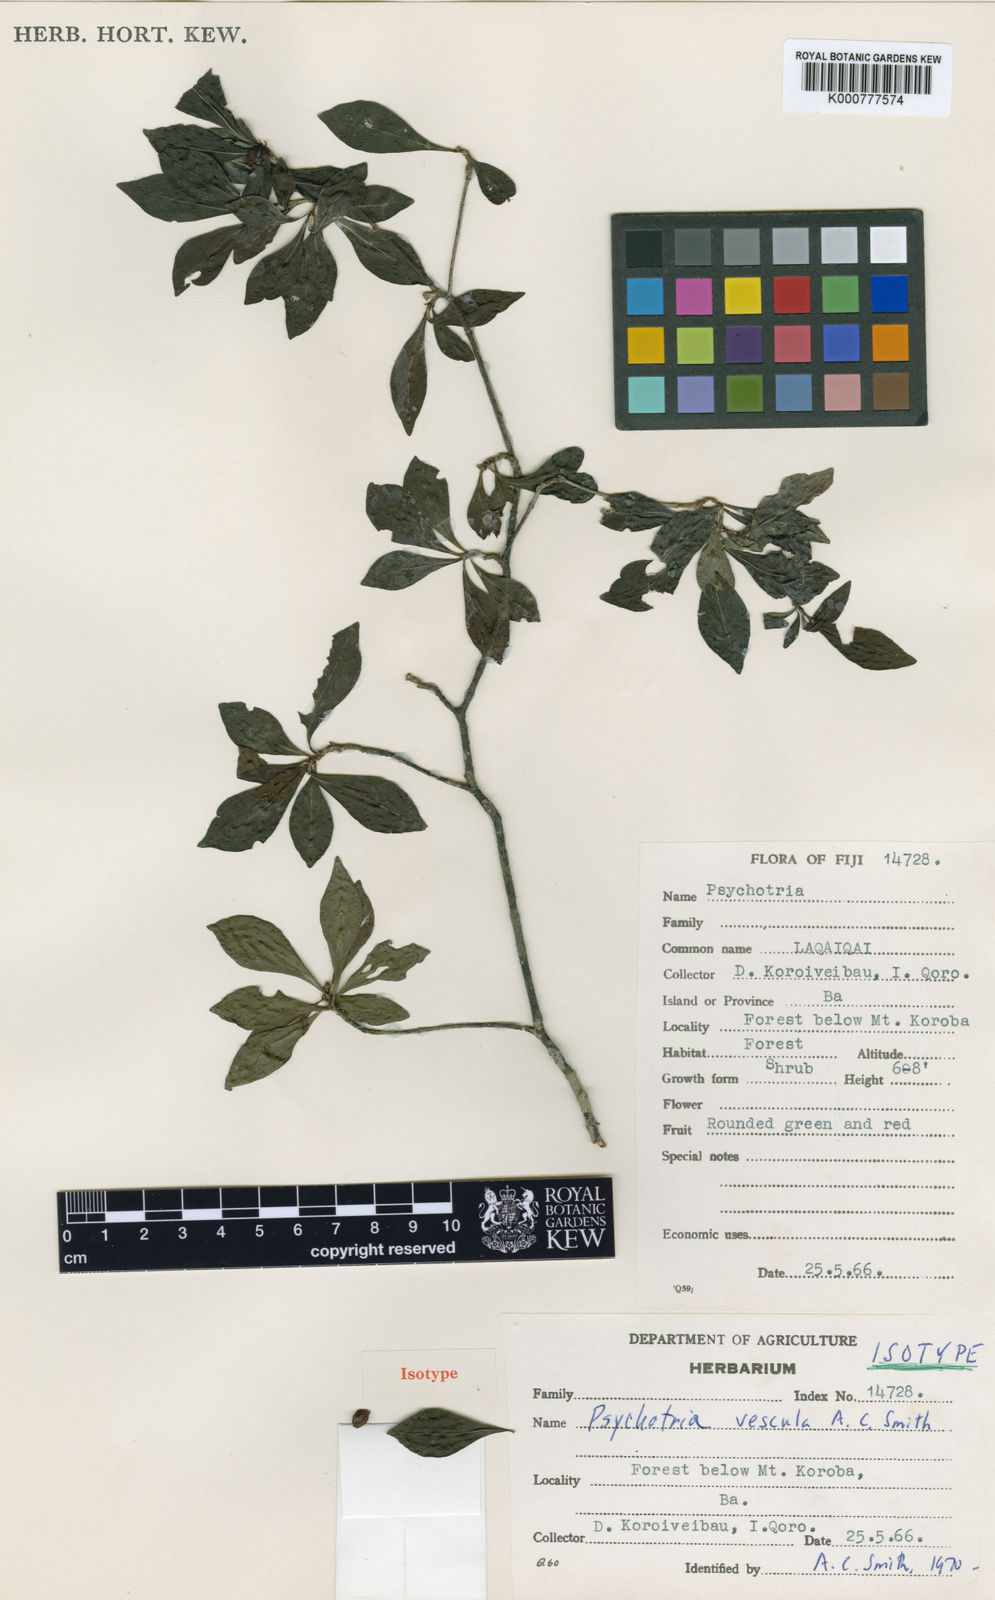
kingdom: Plantae
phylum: Tracheophyta
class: Magnoliopsida
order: Gentianales
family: Rubiaceae
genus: Psychotria
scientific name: Psychotria vescula
